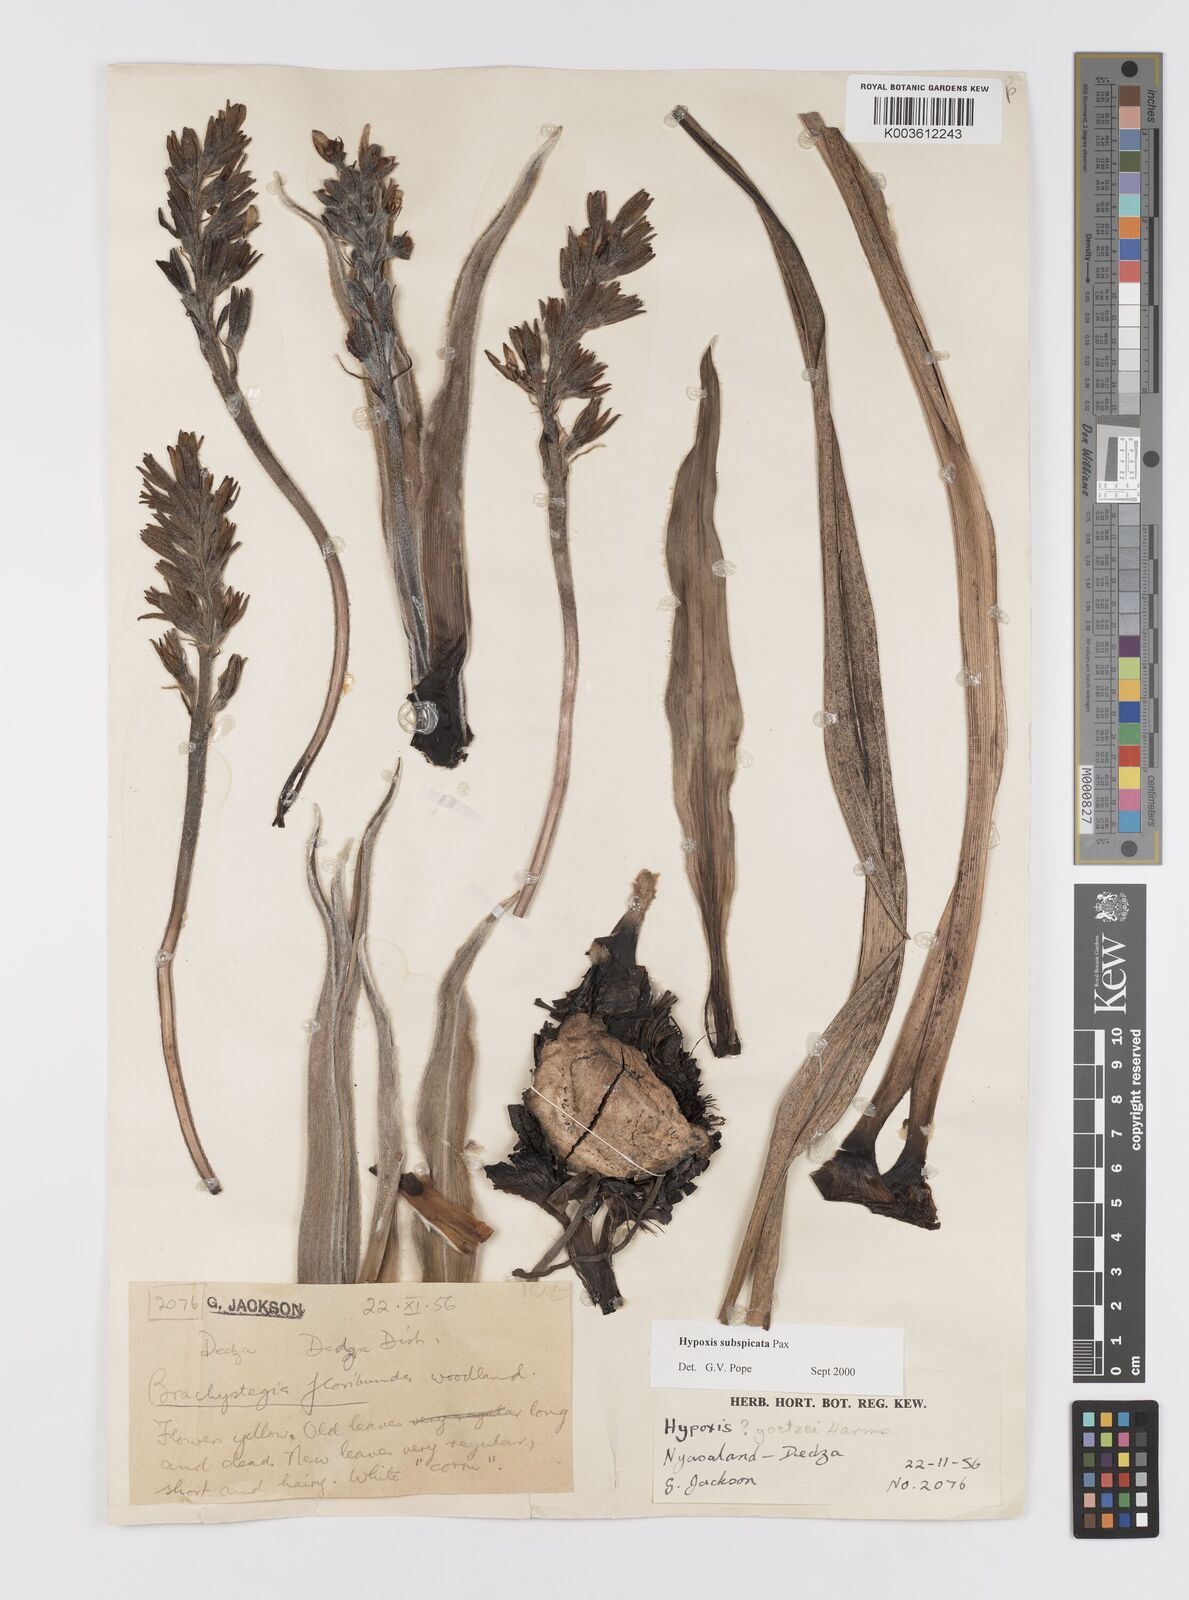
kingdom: Plantae
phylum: Tracheophyta
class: Liliopsida
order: Asparagales
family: Hypoxidaceae
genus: Hypoxis
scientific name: Hypoxis polystachya
